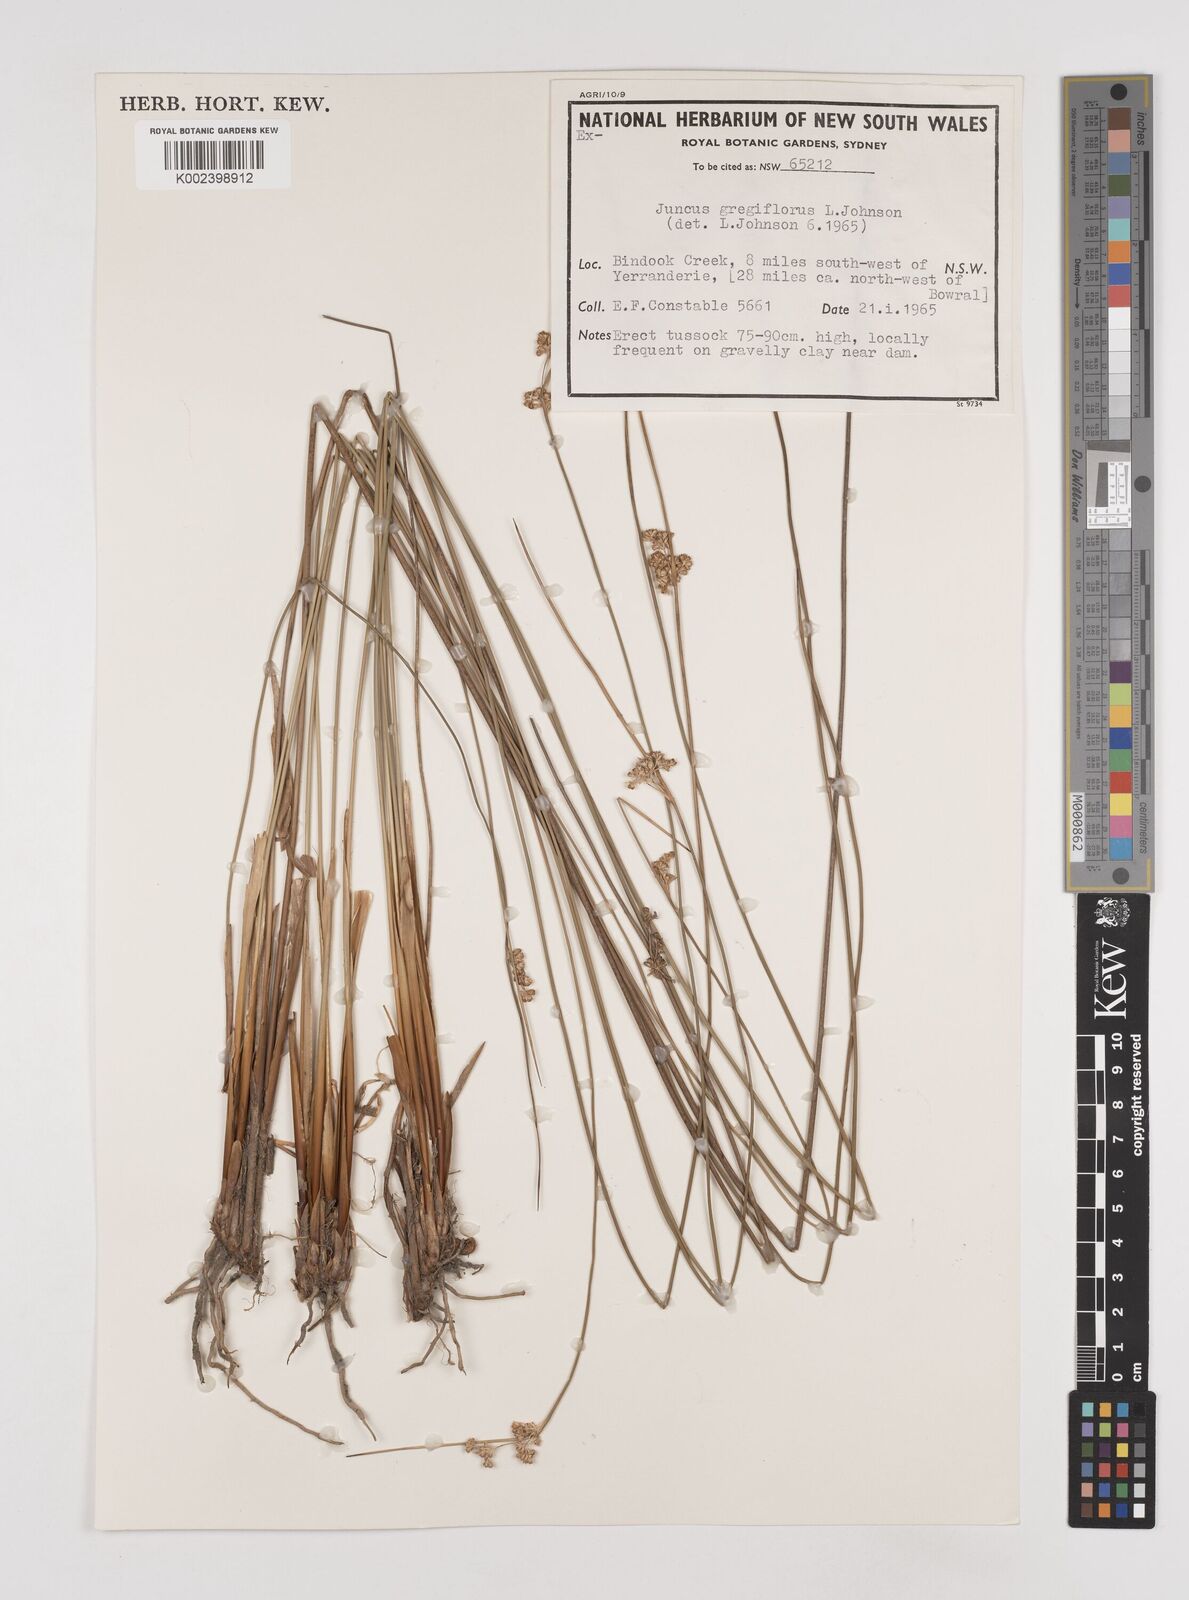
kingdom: Plantae
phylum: Tracheophyta
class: Liliopsida
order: Poales
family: Juncaceae
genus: Juncus
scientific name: Juncus gregiflorus
